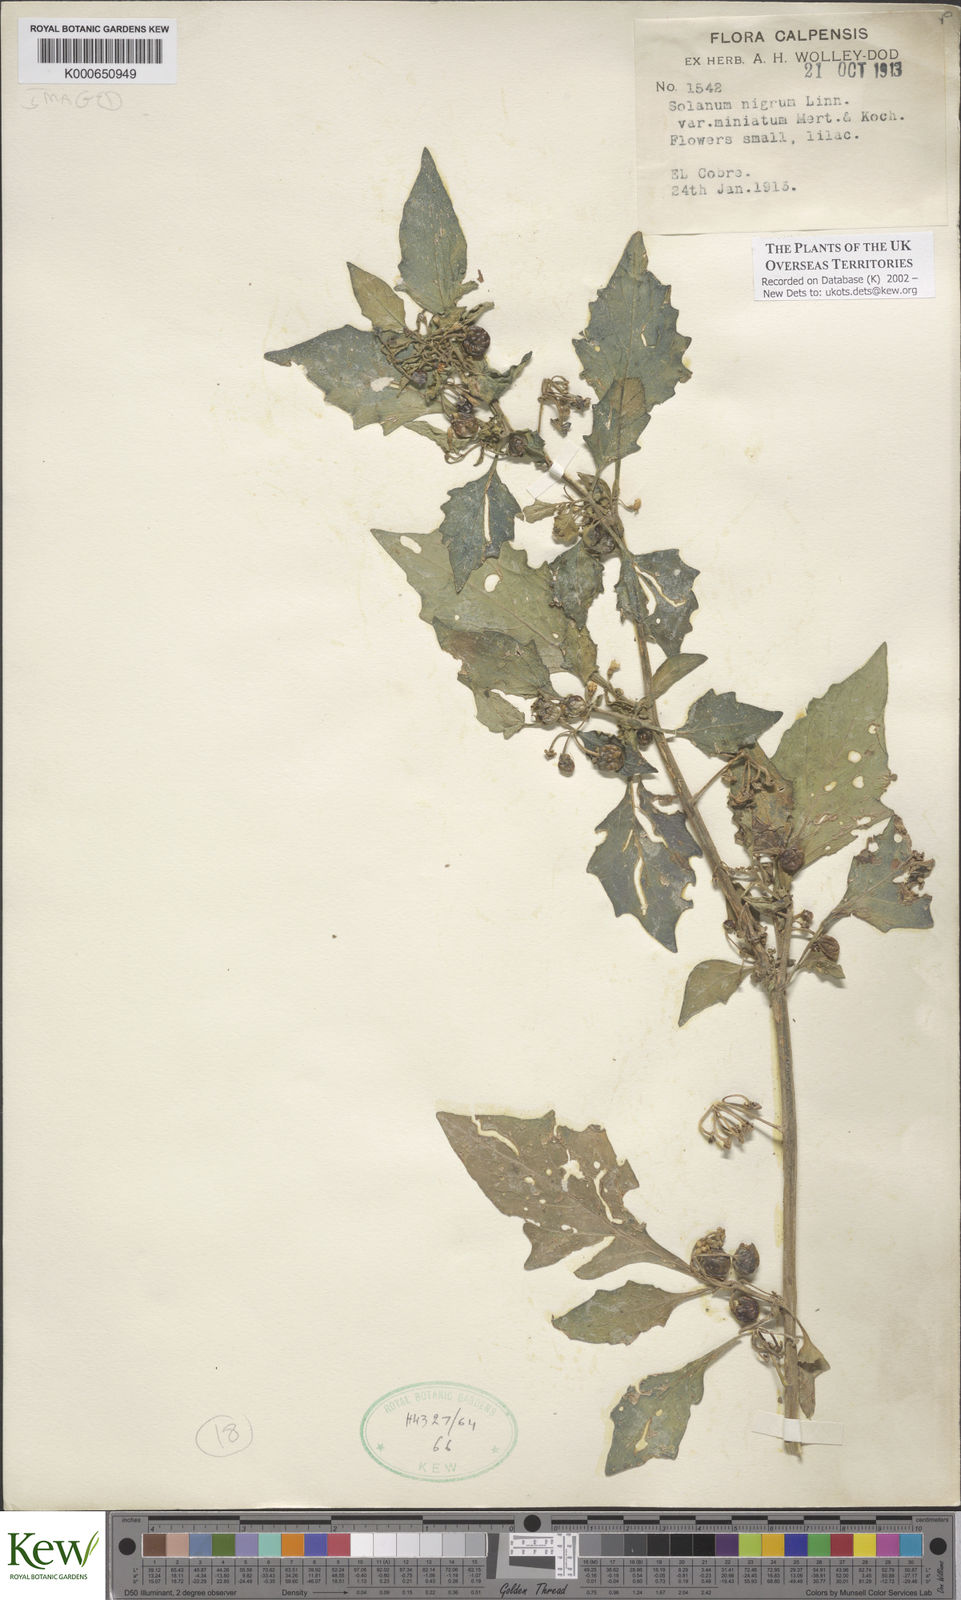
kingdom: Plantae
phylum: Tracheophyta
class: Magnoliopsida
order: Solanales
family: Solanaceae
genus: Solanum
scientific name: Solanum alatum
